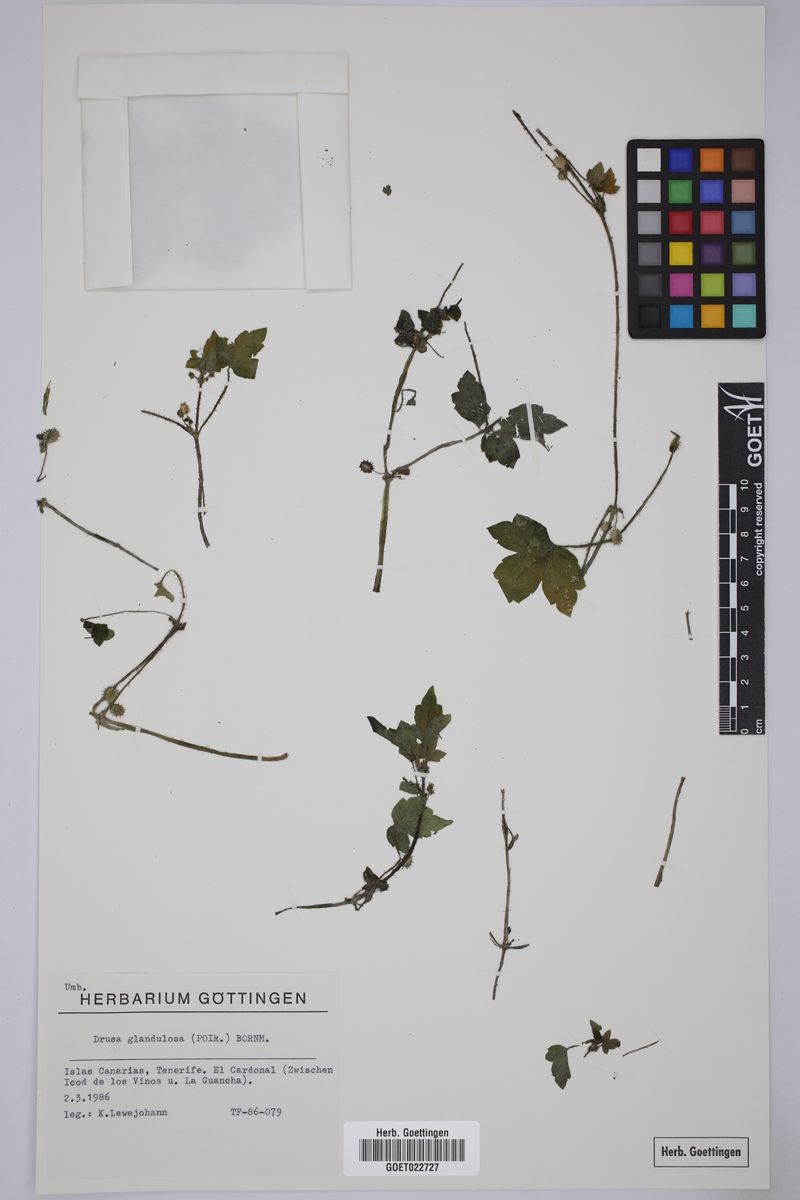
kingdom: Plantae
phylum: Tracheophyta
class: Magnoliopsida
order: Apiales
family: Apiaceae
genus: Drusa
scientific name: Drusa glandulosa
